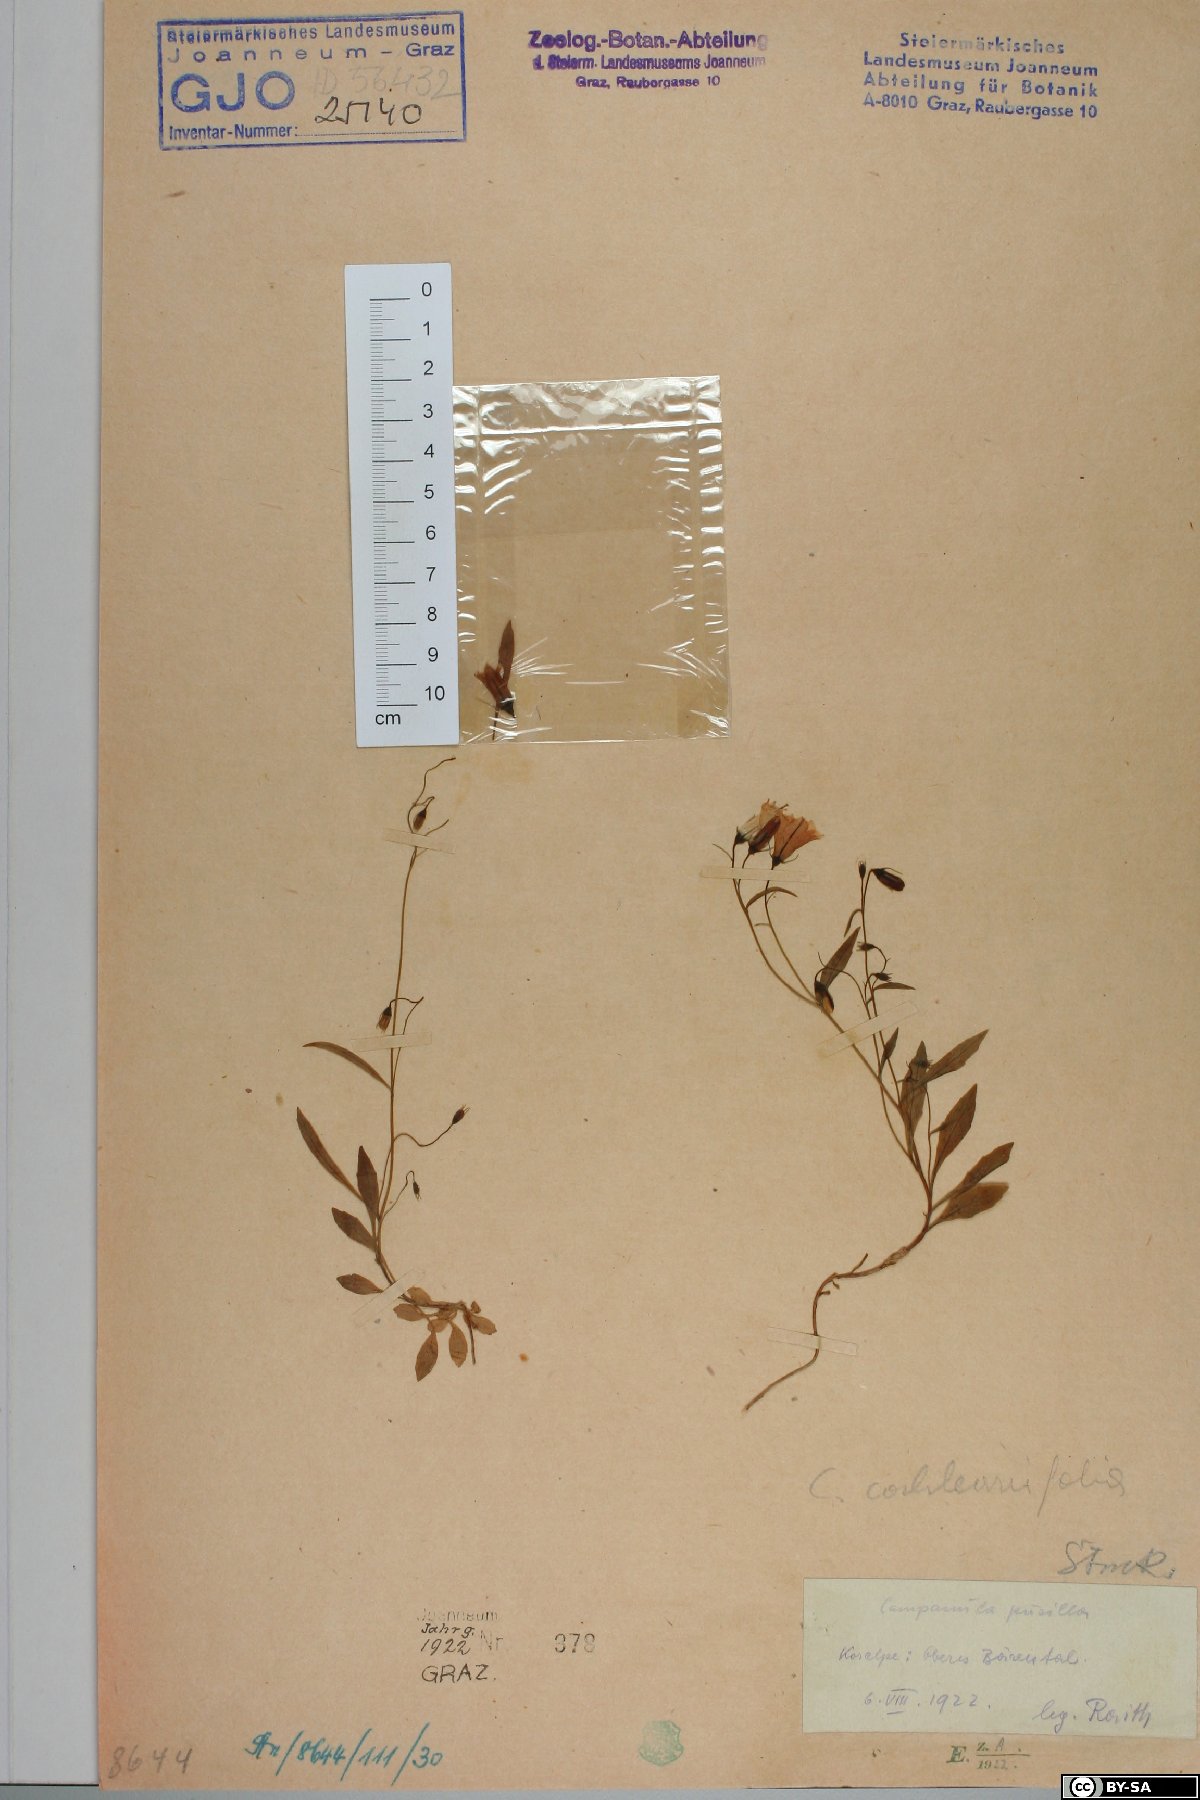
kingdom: Plantae
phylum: Tracheophyta
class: Magnoliopsida
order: Asterales
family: Campanulaceae
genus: Campanula
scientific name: Campanula cochleariifolia
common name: Fairies'-thimbles
